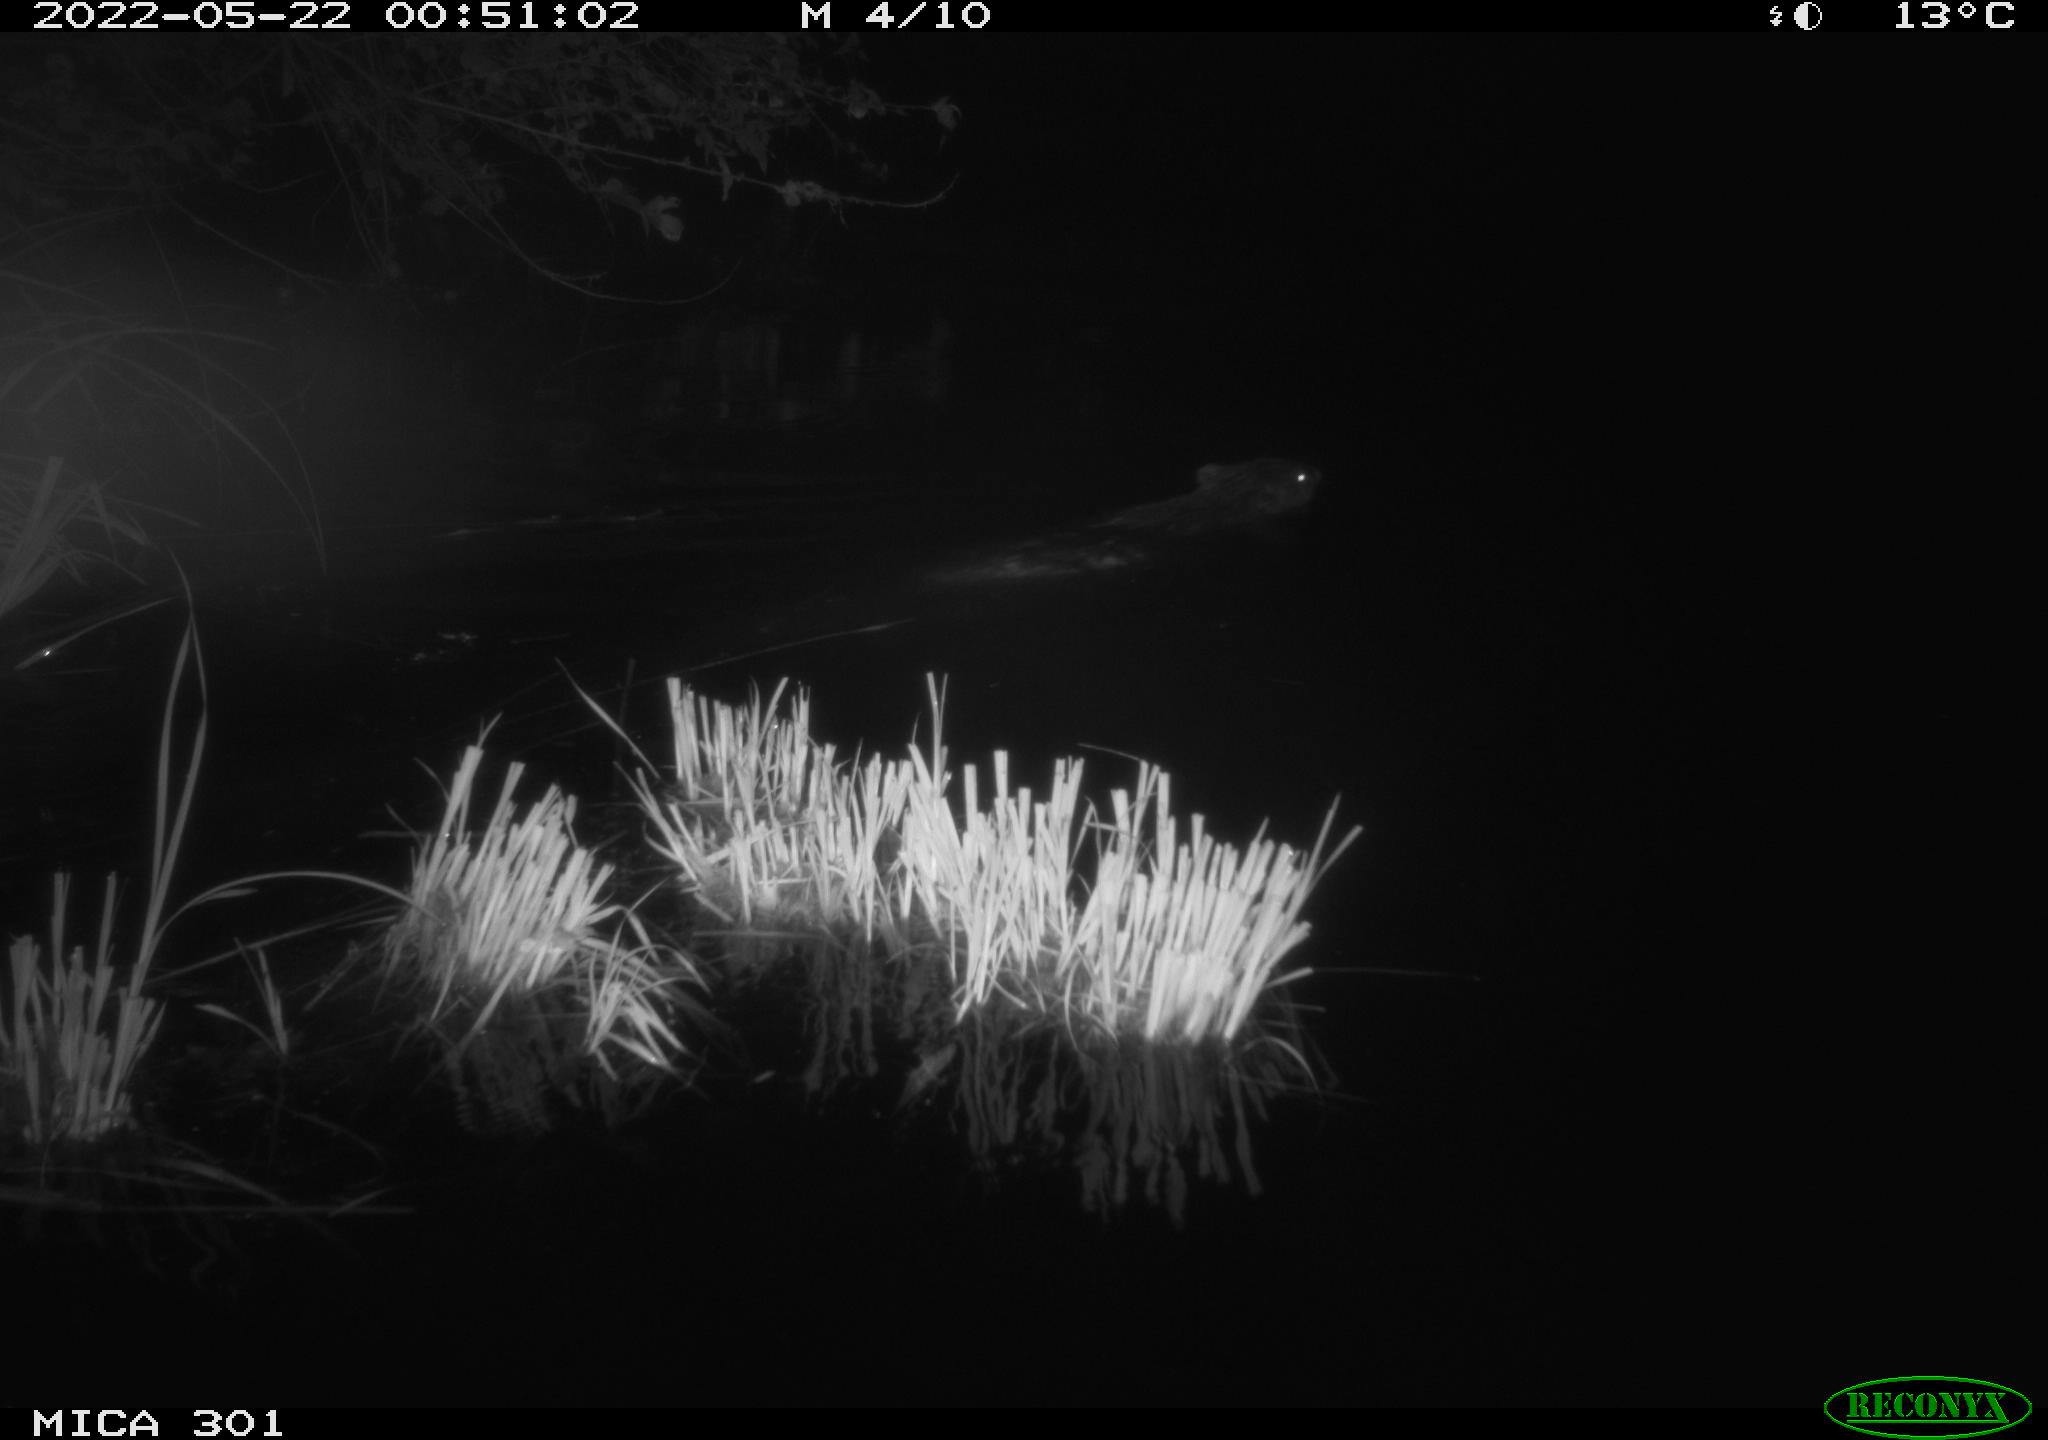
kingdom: Animalia
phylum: Chordata
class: Mammalia
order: Rodentia
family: Castoridae
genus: Castor
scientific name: Castor fiber
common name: Eurasian beaver
